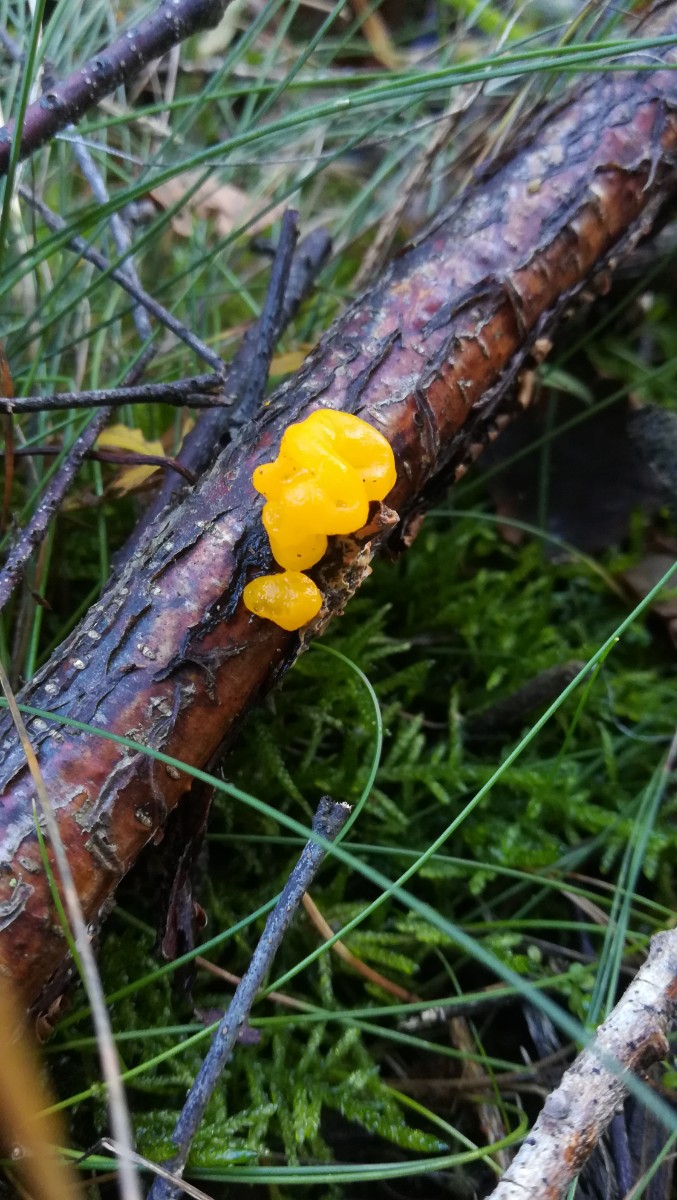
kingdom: Fungi
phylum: Basidiomycota
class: Tremellomycetes
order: Tremellales
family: Tremellaceae
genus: Tremella
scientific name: Tremella mesenterica
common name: gul bævresvamp
